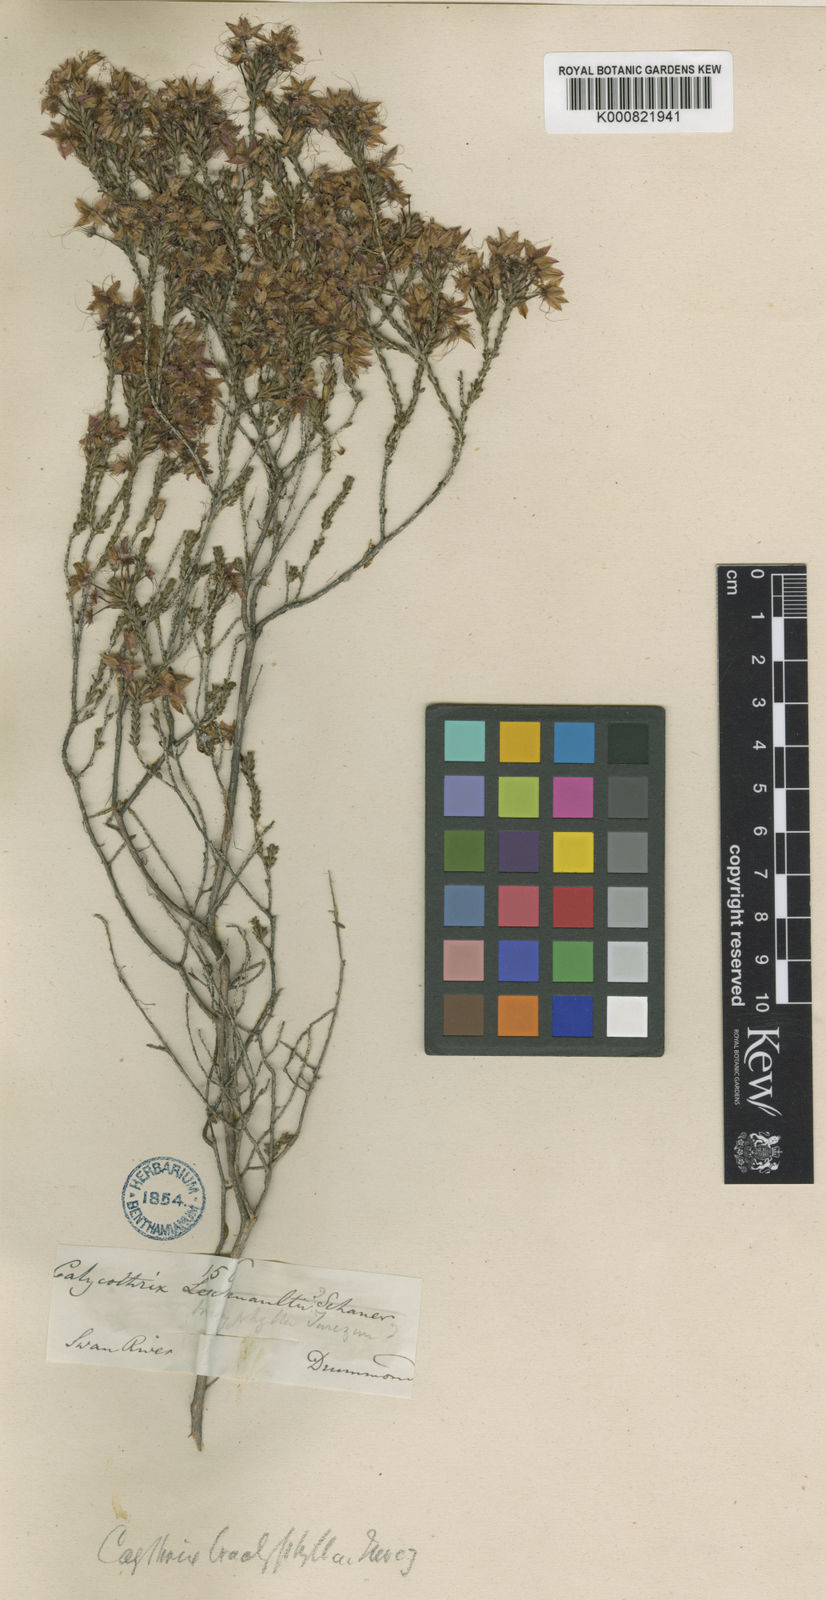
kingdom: Plantae
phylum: Tracheophyta
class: Magnoliopsida
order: Myrtales
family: Myrtaceae
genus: Calytrix
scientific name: Calytrix leschenaultii
